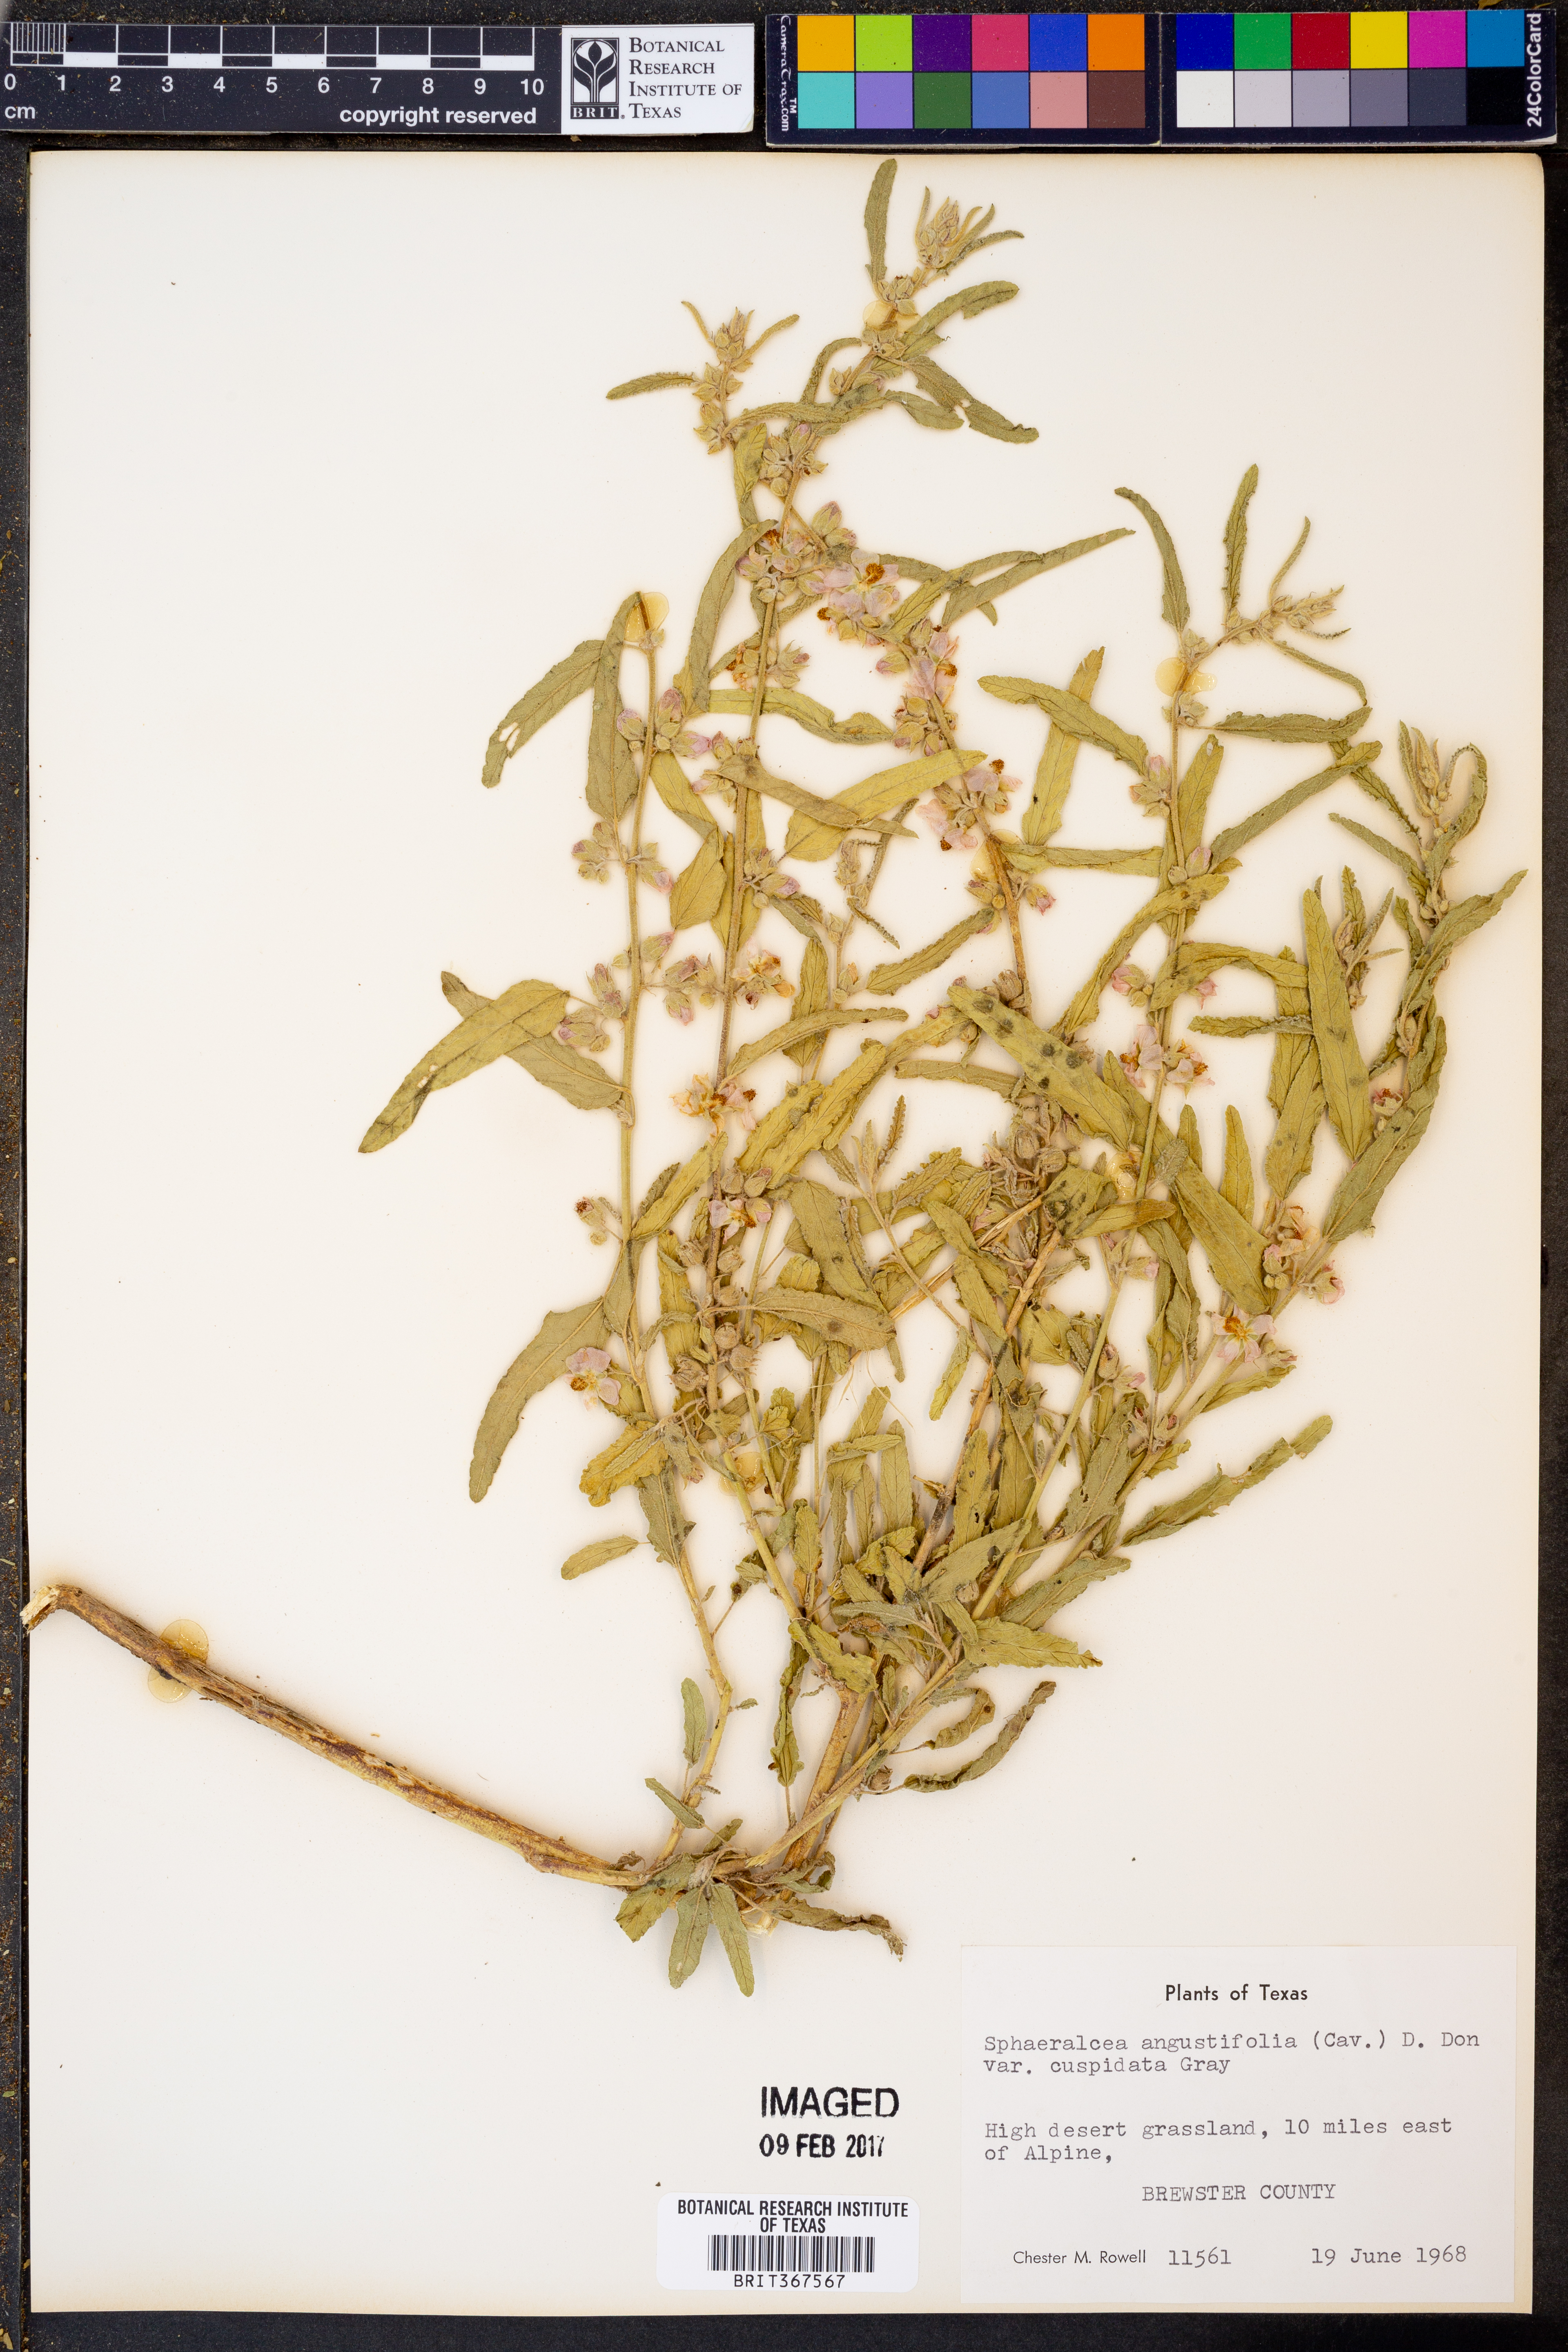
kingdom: Plantae
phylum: Tracheophyta
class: Magnoliopsida
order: Malvales
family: Malvaceae
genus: Sphaeralcea
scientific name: Sphaeralcea angustifolia
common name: Copper globe-mallow
